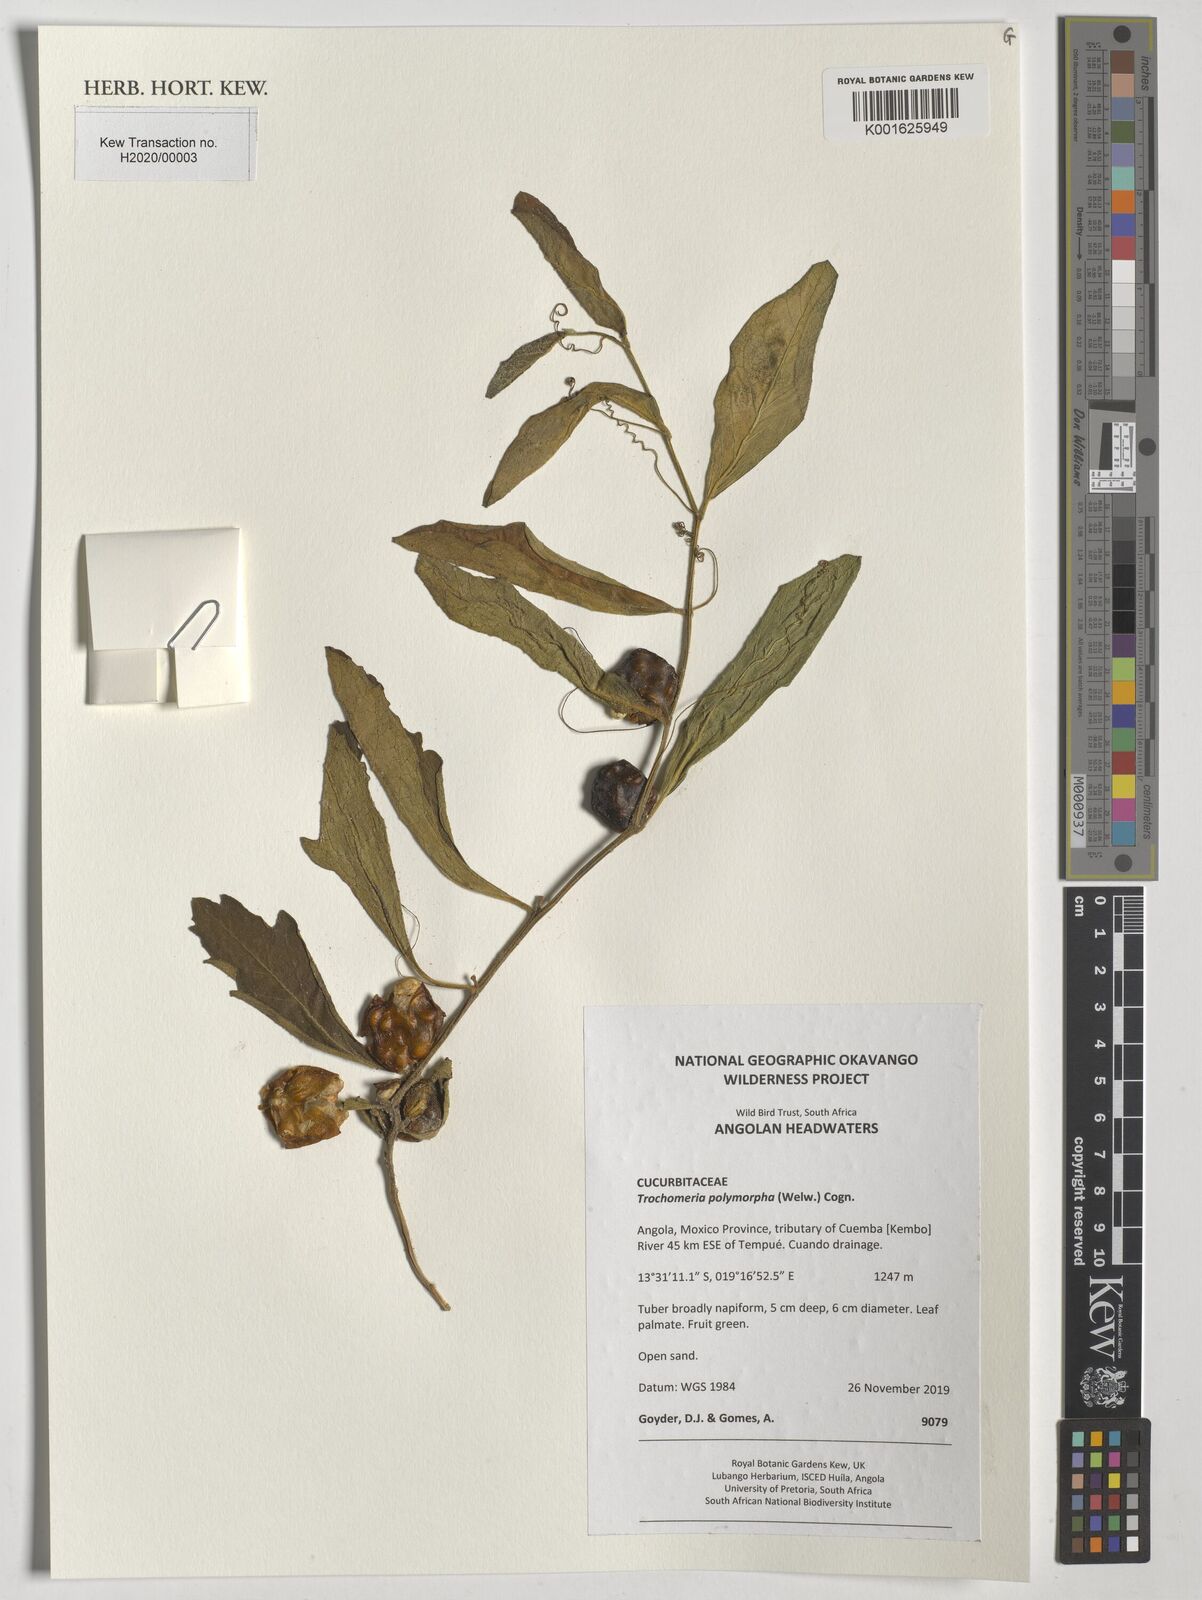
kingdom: Plantae
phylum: Tracheophyta
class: Magnoliopsida
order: Cucurbitales
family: Cucurbitaceae
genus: Trochomeria
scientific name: Trochomeria polymorpha
